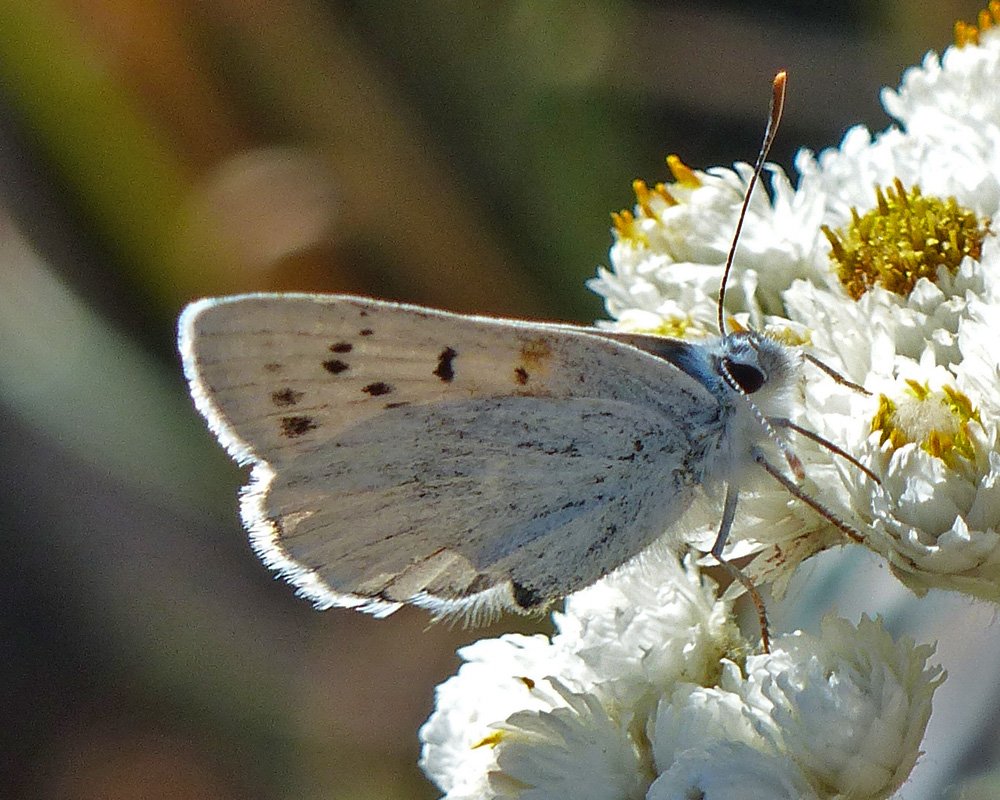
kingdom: Animalia
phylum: Arthropoda
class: Insecta
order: Lepidoptera
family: Lycaenidae
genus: Lycaena
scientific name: Lycaena heteronea
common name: Blue Copper
